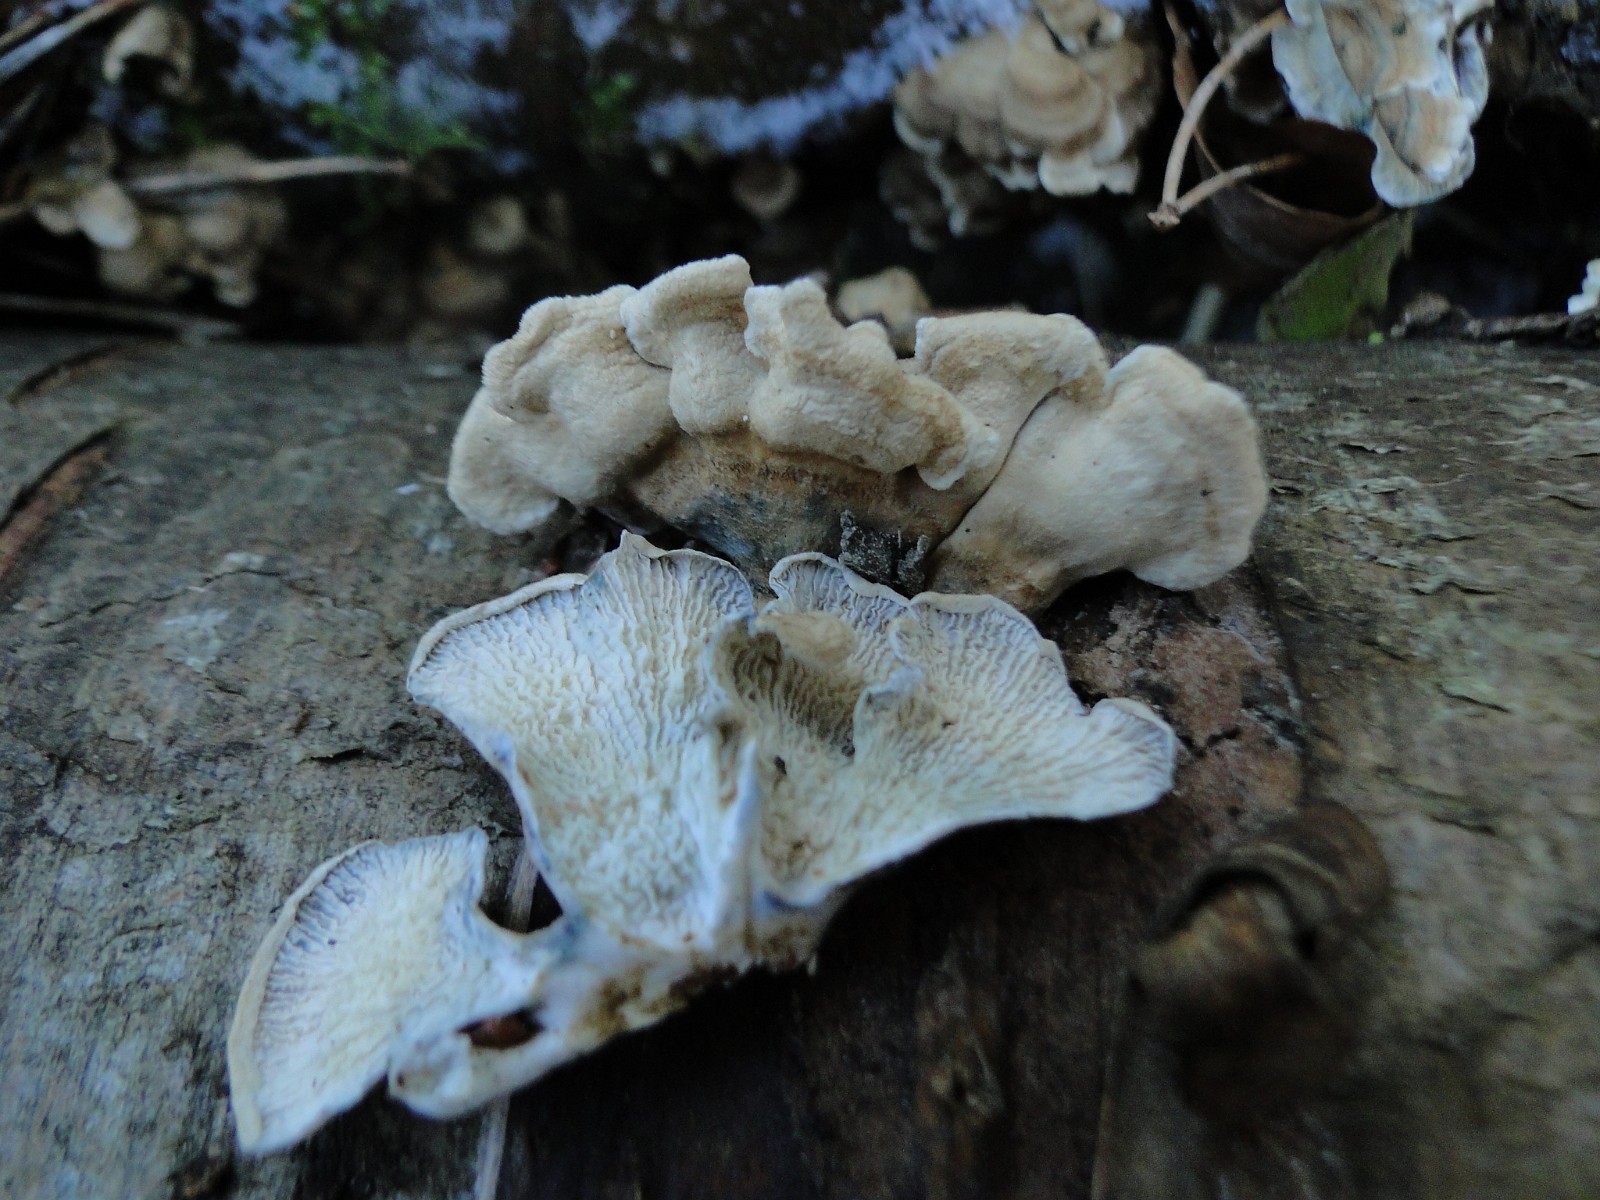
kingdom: Fungi
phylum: Basidiomycota
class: Agaricomycetes
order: Amylocorticiales
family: Amylocorticiaceae
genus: Plicaturopsis
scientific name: Plicaturopsis crispa
